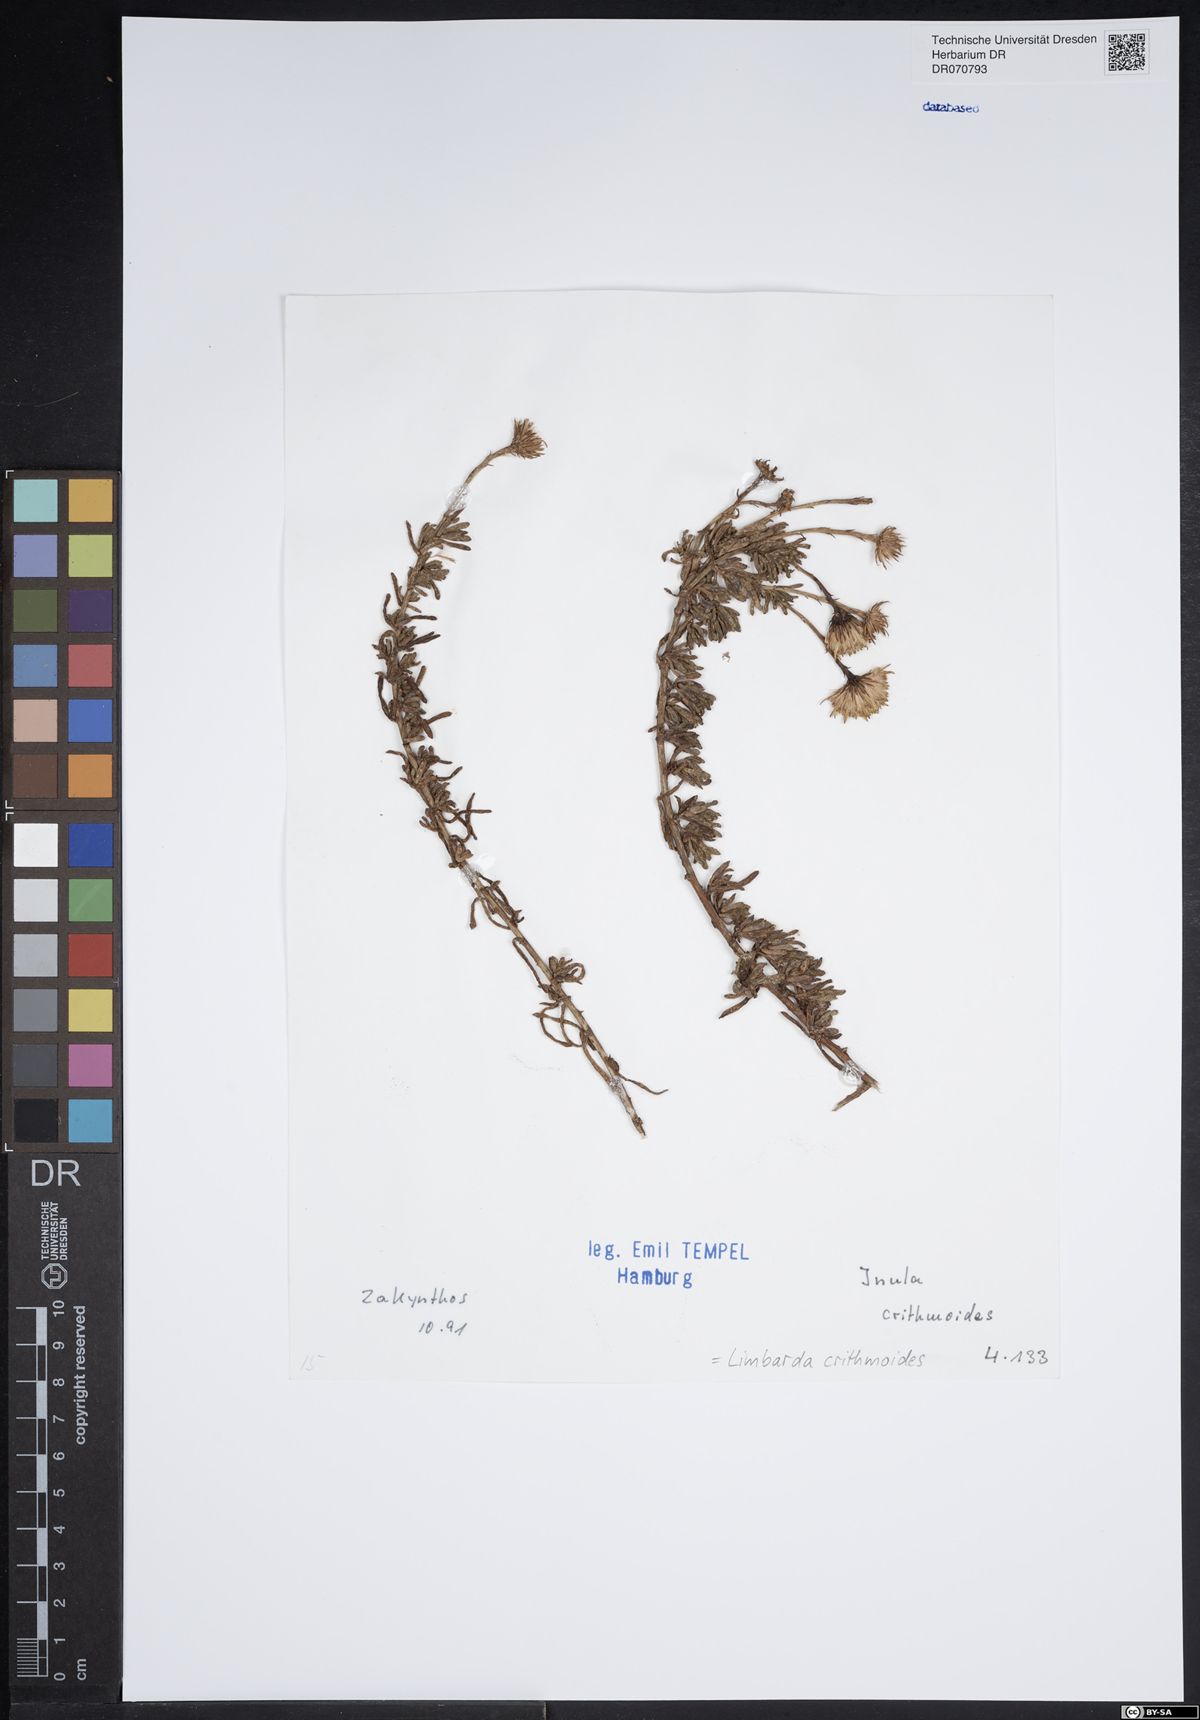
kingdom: Plantae
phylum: Tracheophyta
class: Magnoliopsida
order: Asterales
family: Asteraceae
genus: Limbarda
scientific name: Limbarda crithmoides
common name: Golden samphire
